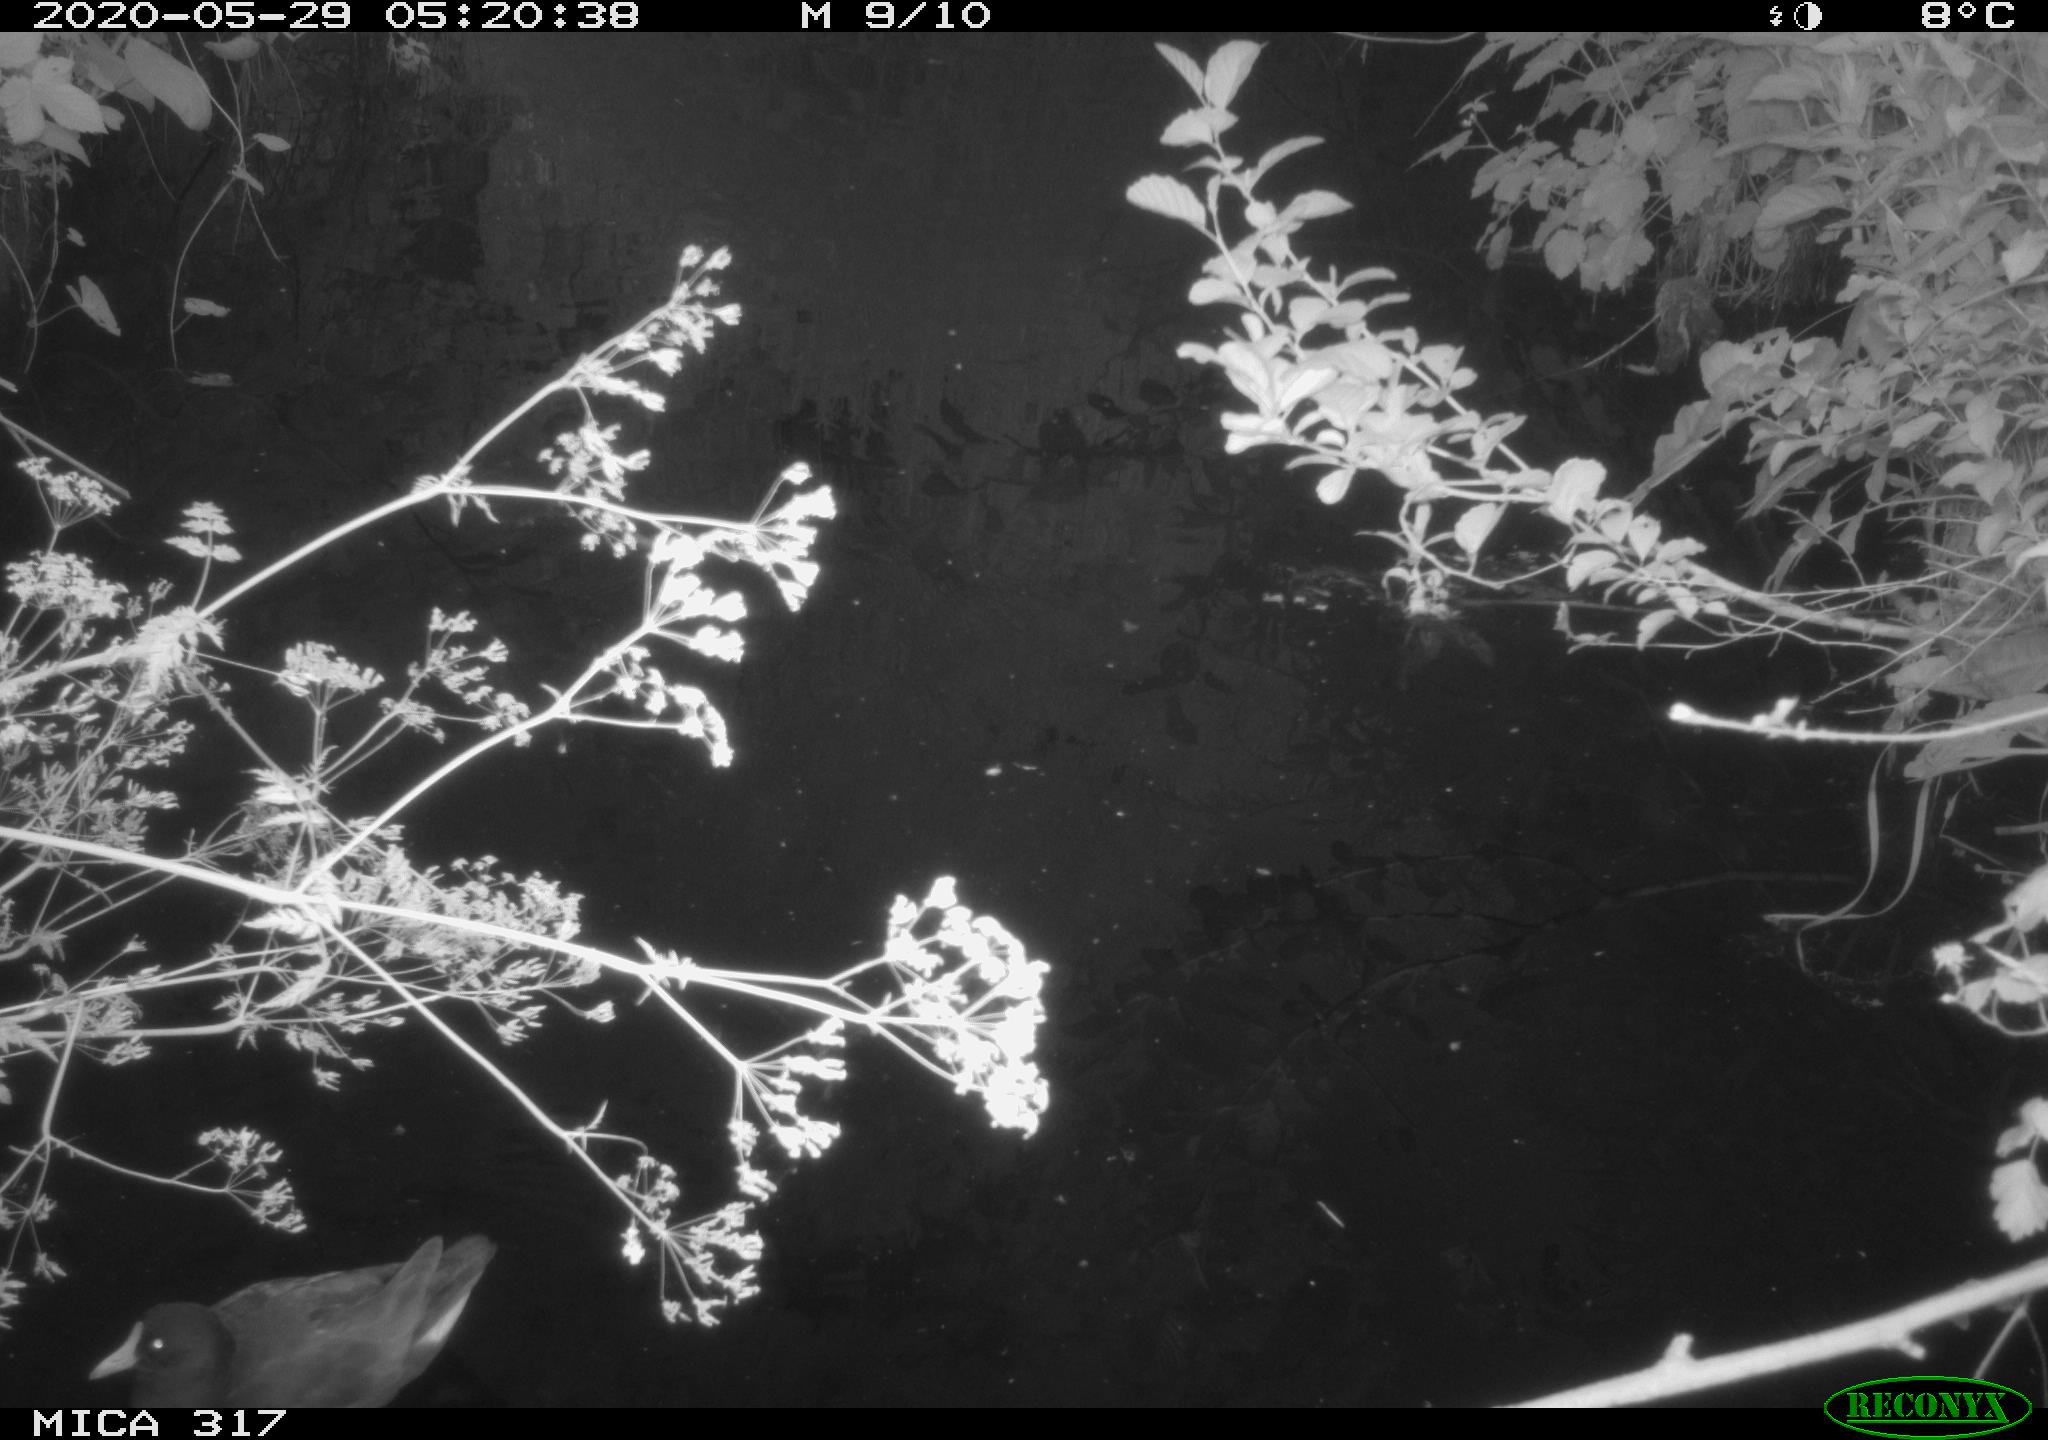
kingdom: Animalia
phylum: Chordata
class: Aves
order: Anseriformes
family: Anatidae
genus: Anas
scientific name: Anas platyrhynchos
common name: Mallard
